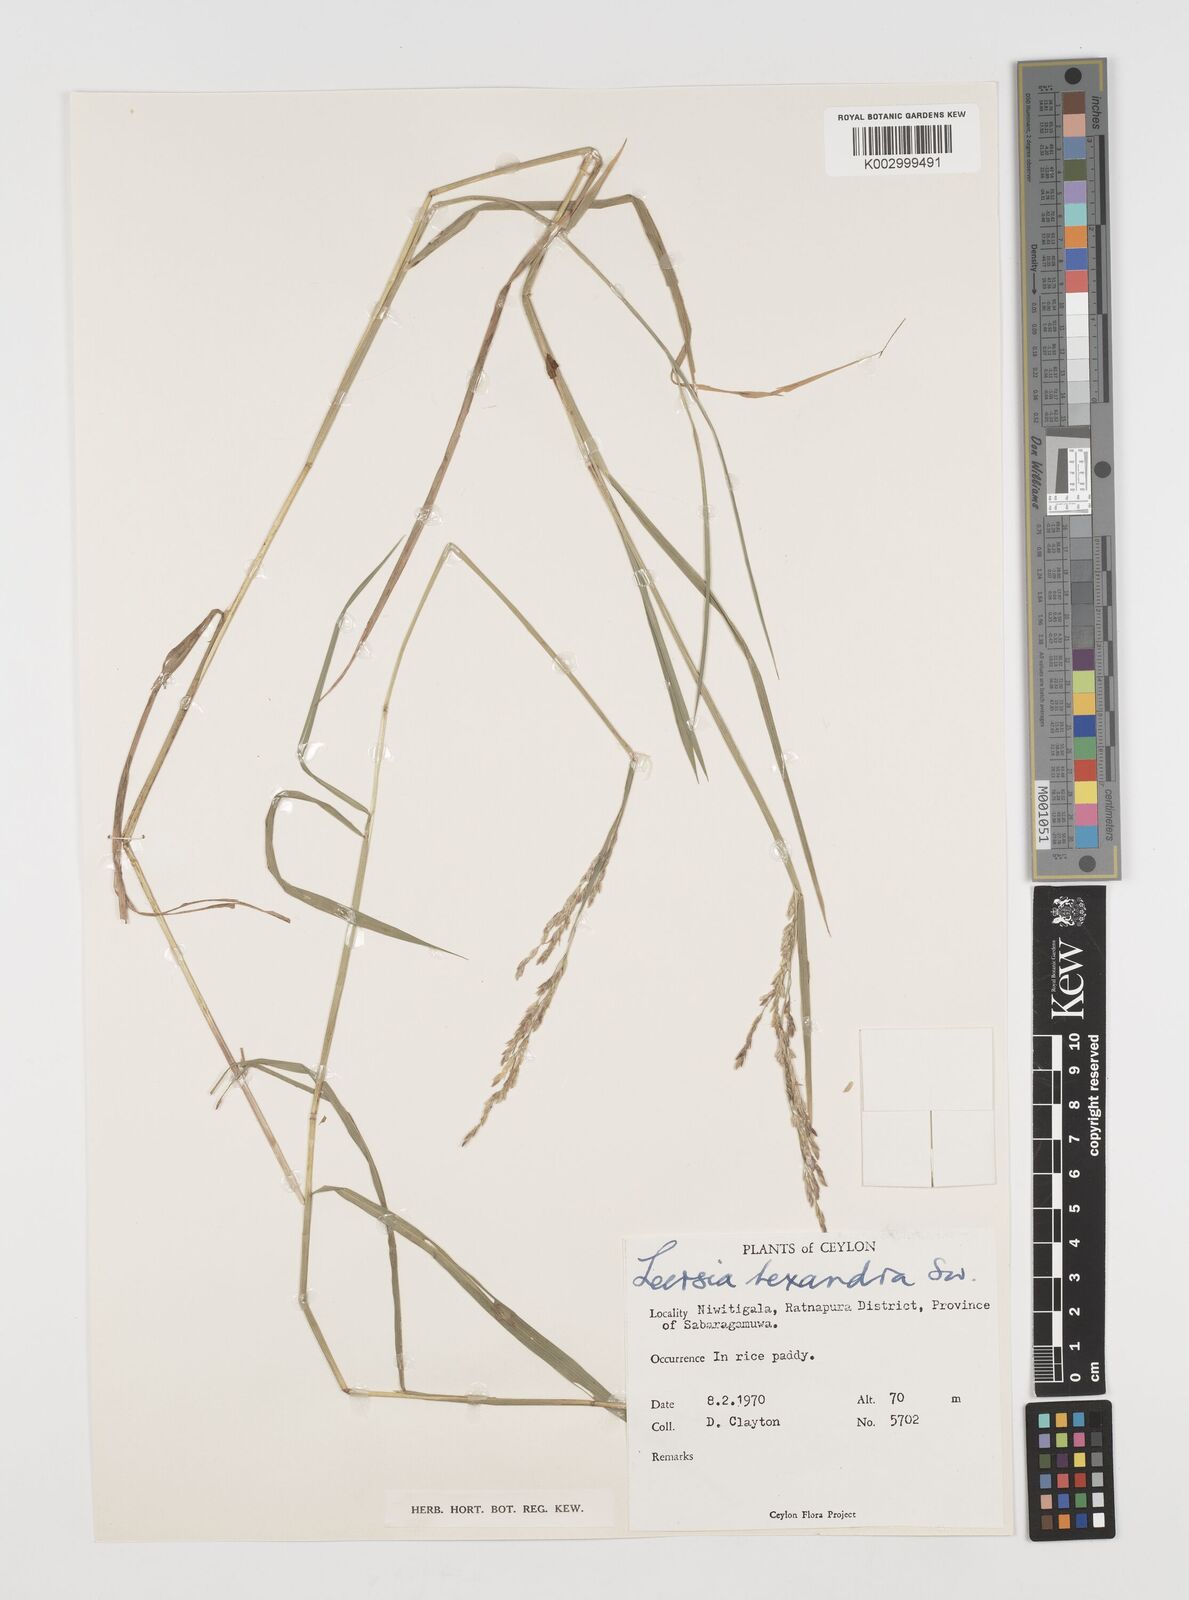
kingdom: Plantae
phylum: Tracheophyta
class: Liliopsida
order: Poales
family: Poaceae
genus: Leersia
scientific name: Leersia hexandra
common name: Southern cut grass
